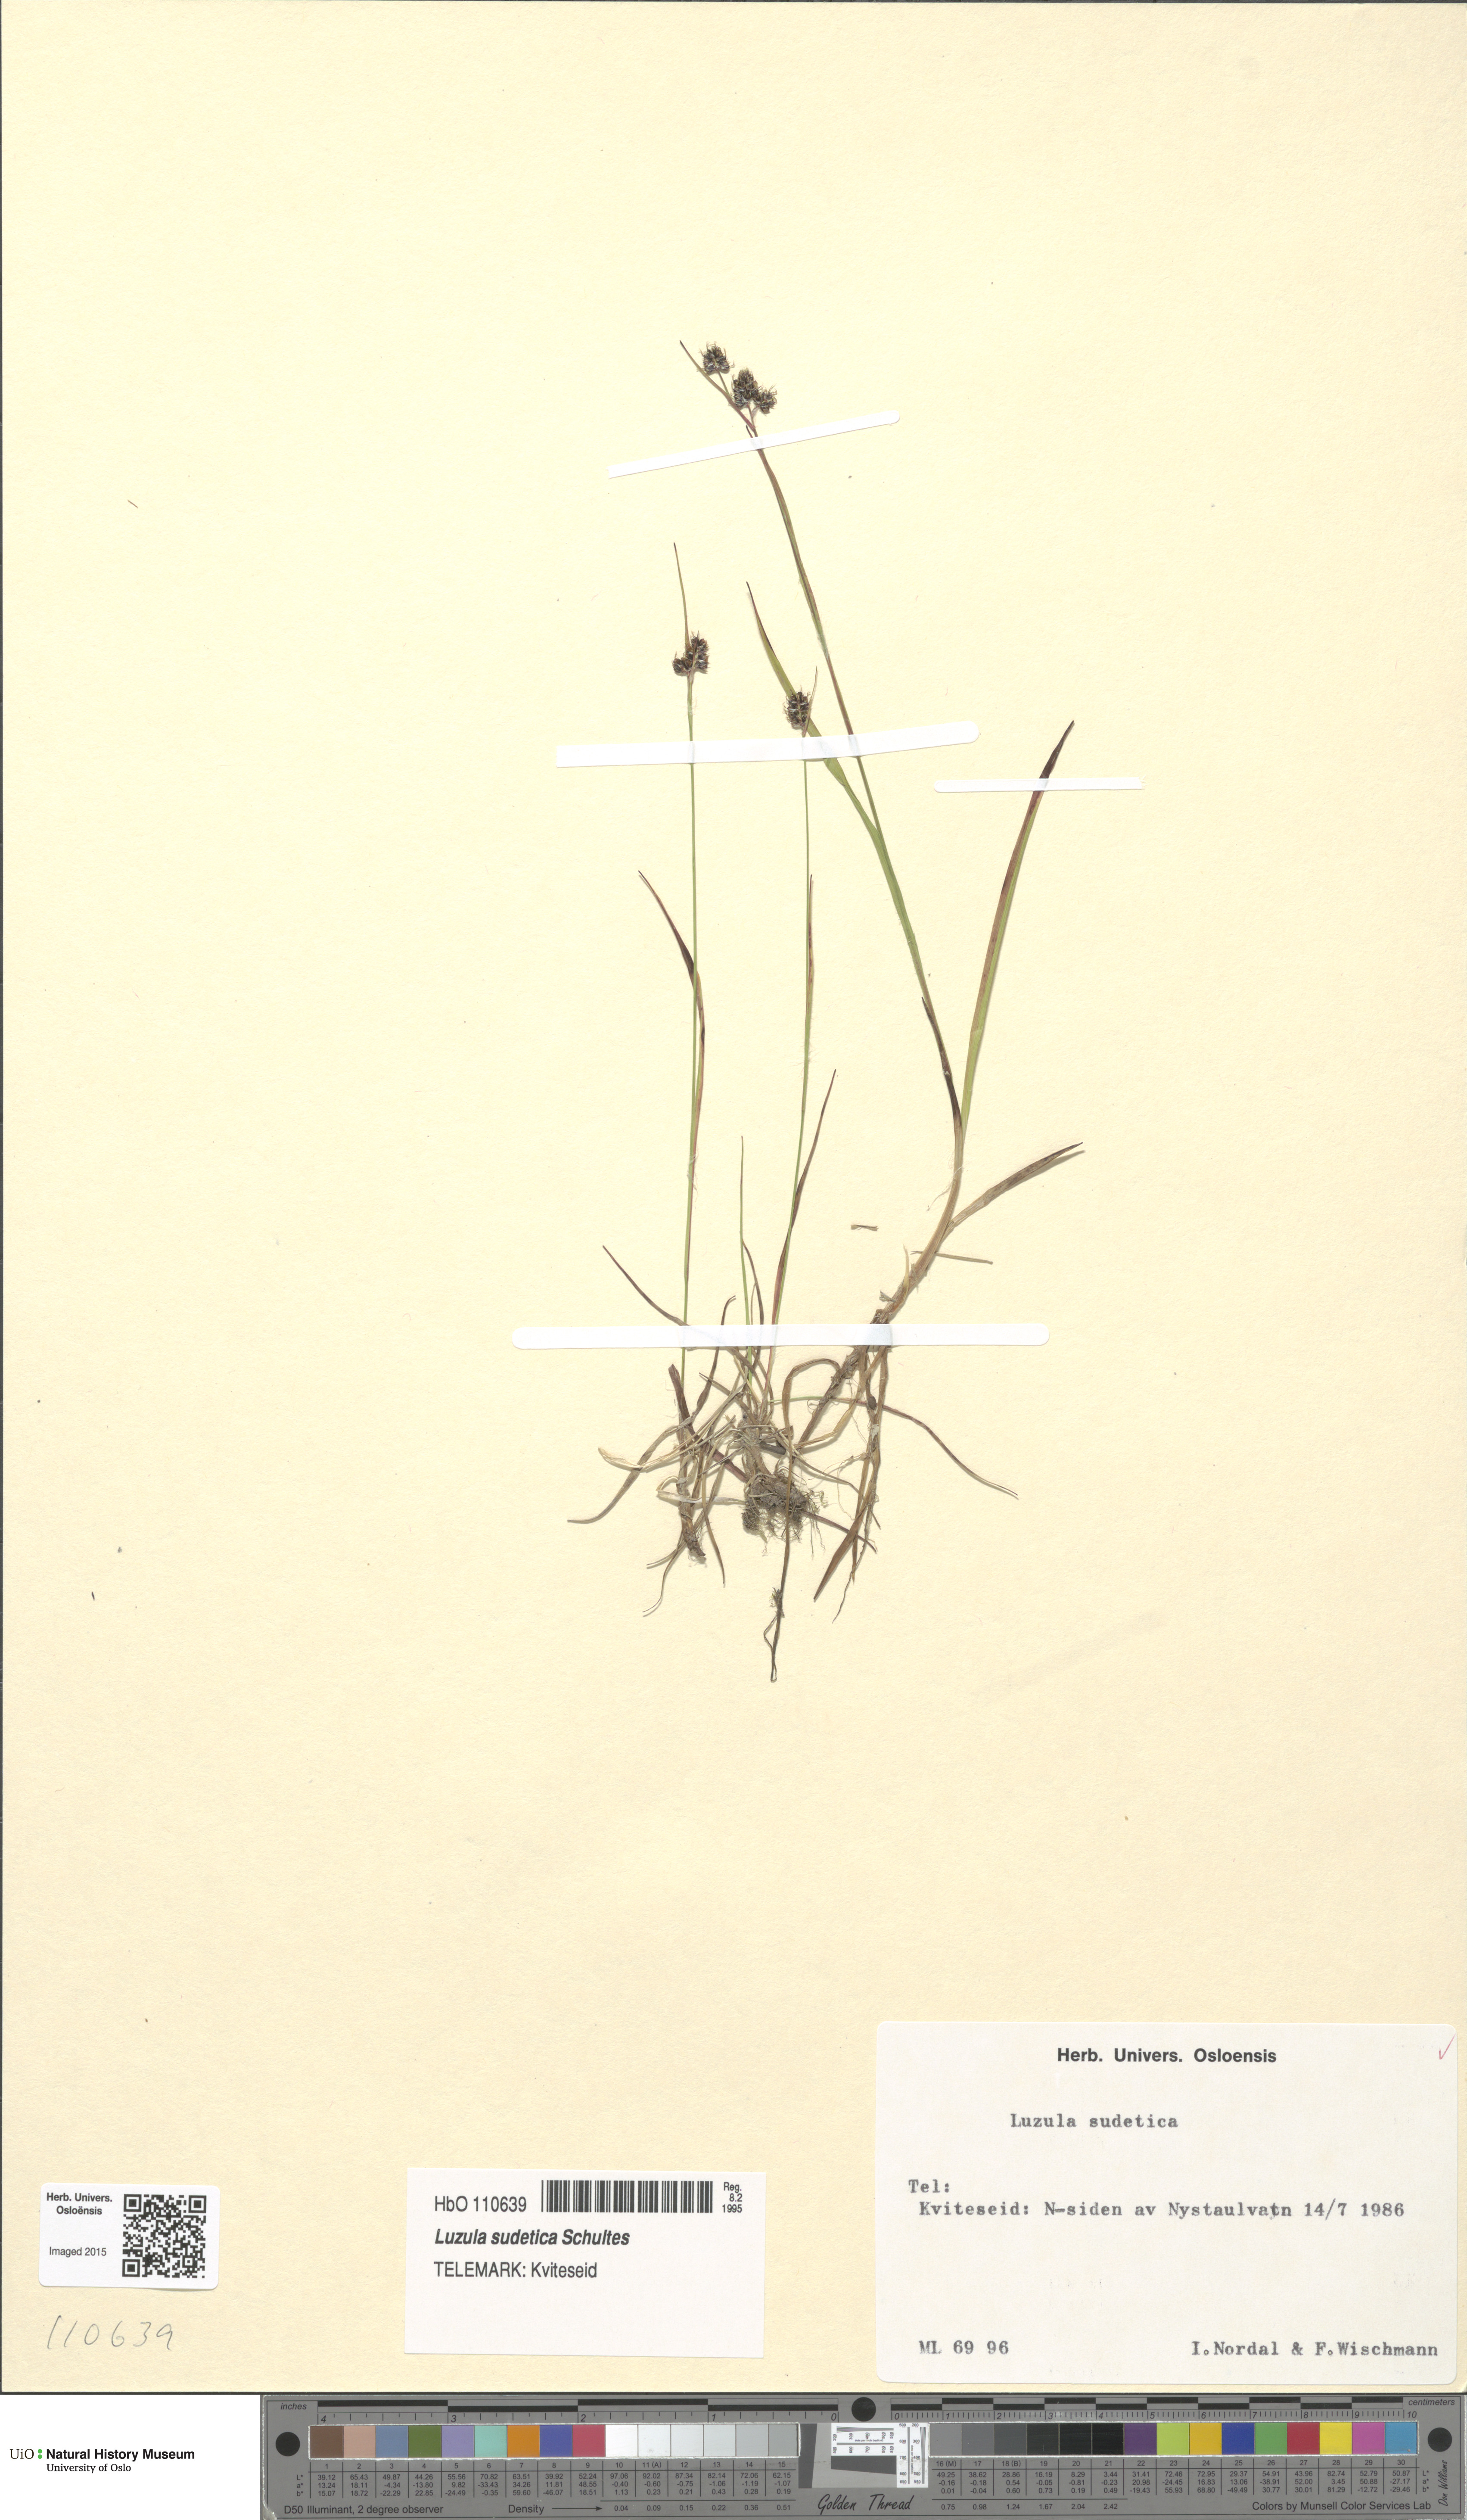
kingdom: Plantae
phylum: Tracheophyta
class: Liliopsida
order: Poales
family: Juncaceae
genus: Luzula
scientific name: Luzula sudetica
